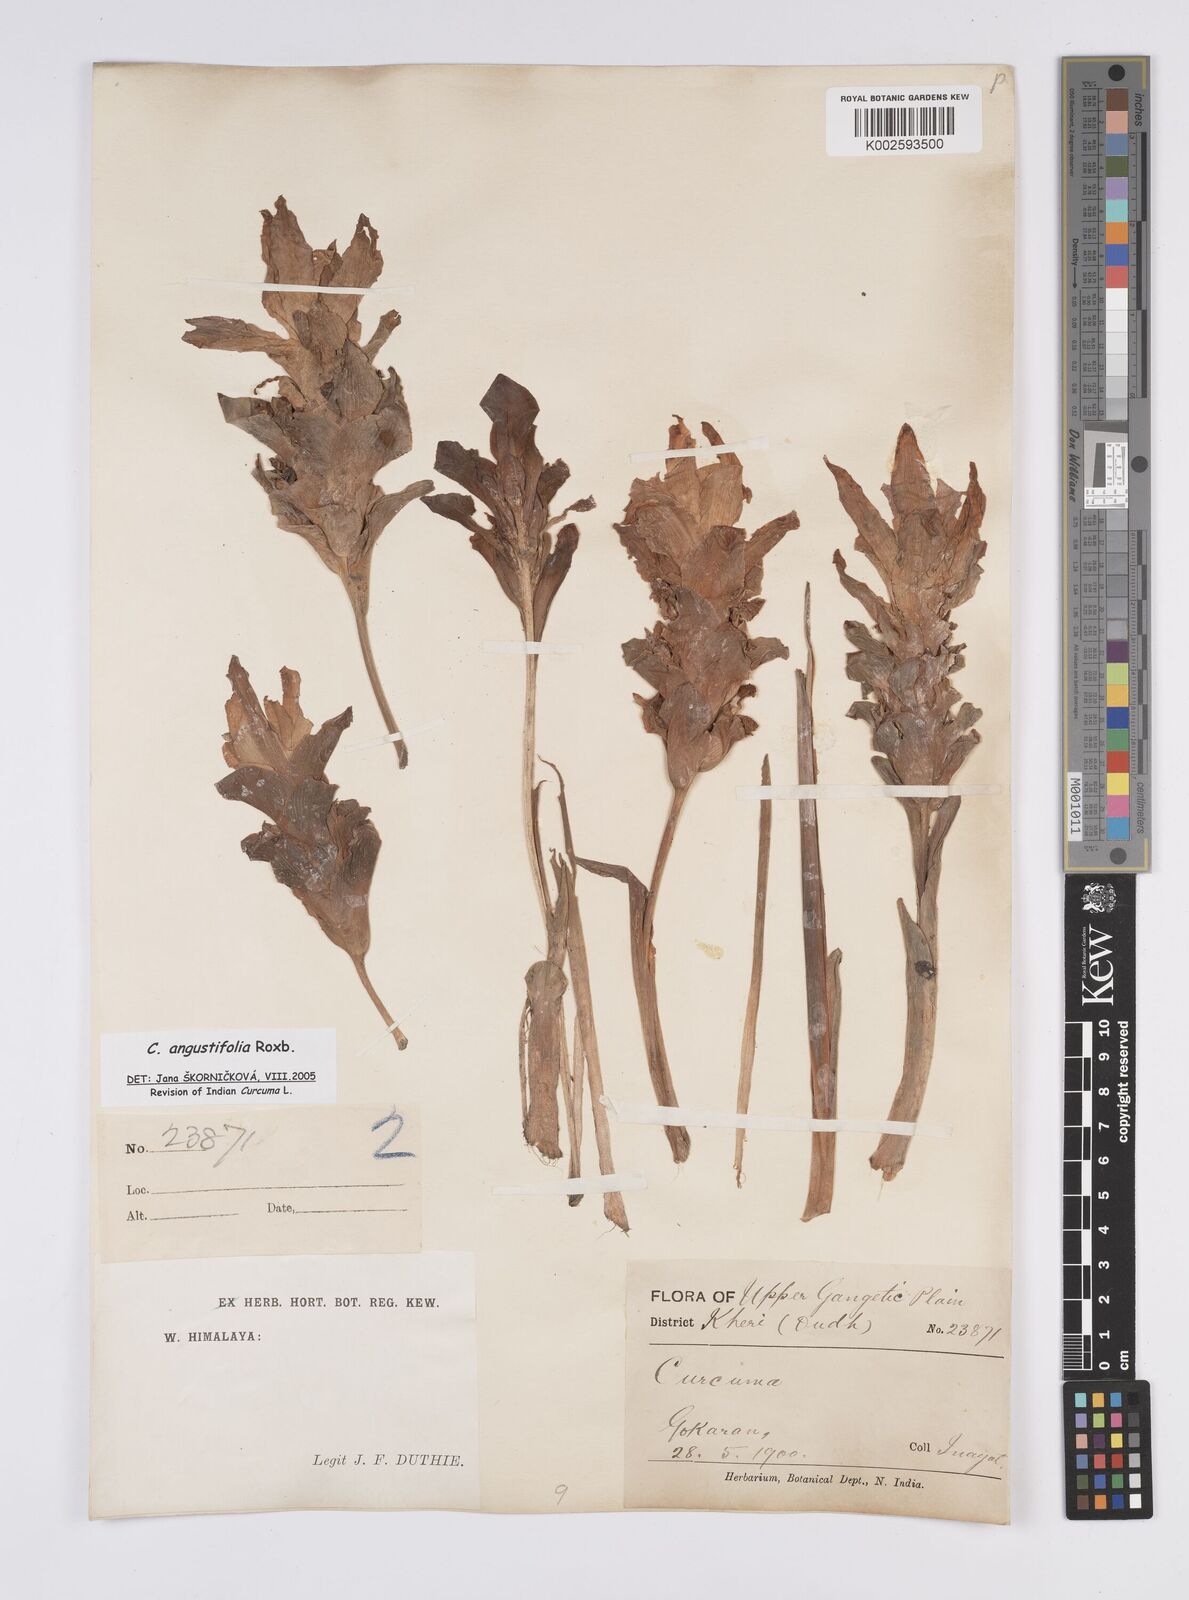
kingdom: Plantae
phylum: Tracheophyta
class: Liliopsida
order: Zingiberales
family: Zingiberaceae
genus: Curcuma
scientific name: Curcuma angustifolia
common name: East indian arrowroot
